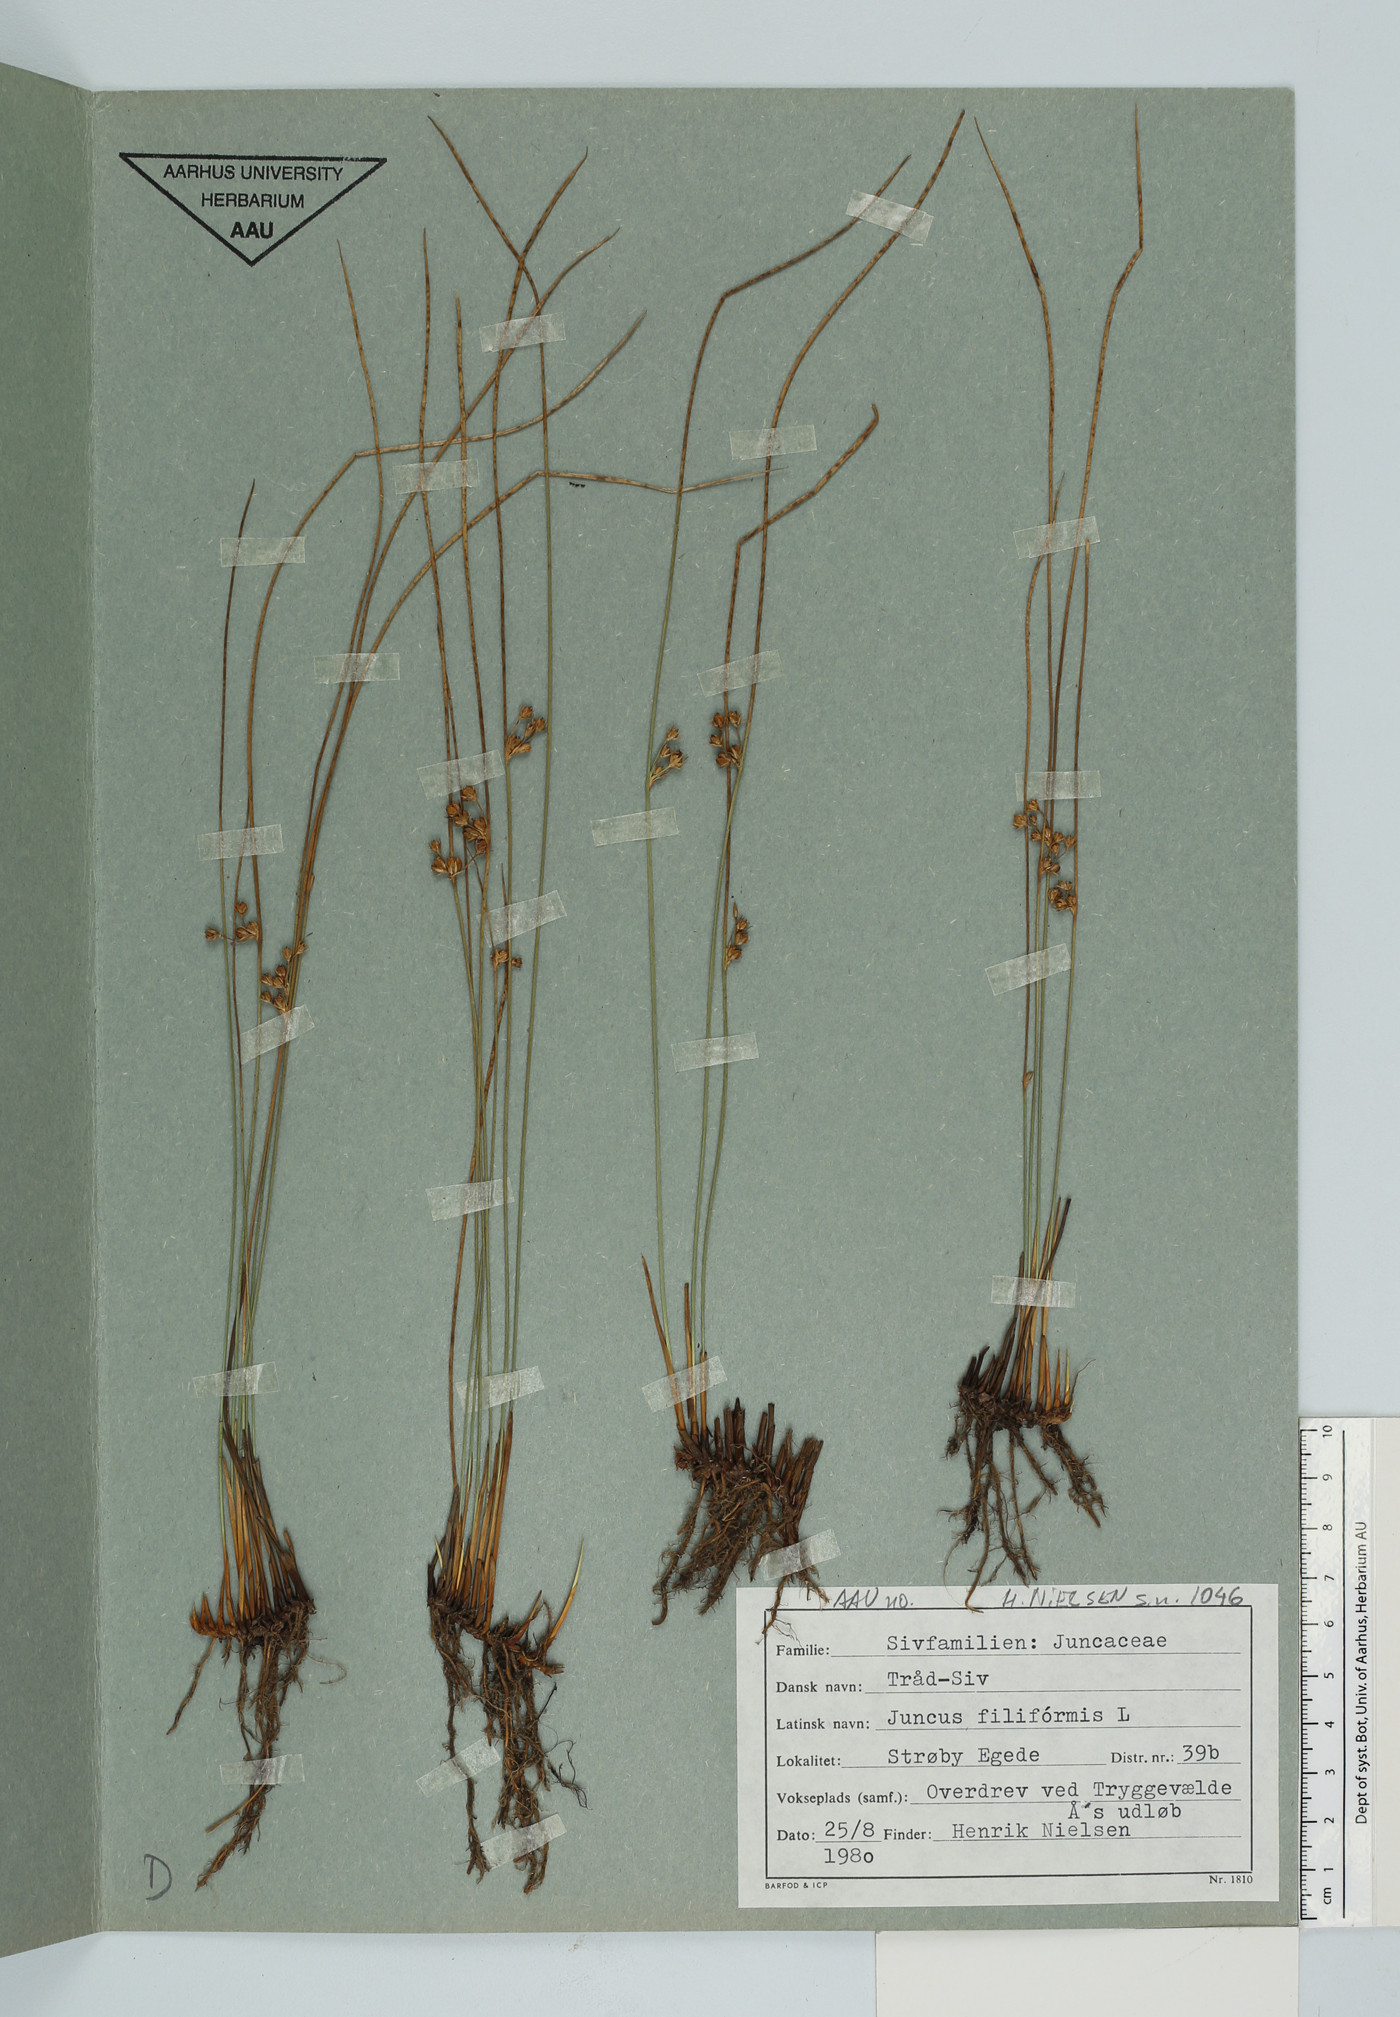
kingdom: Plantae
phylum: Tracheophyta
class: Liliopsida
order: Poales
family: Juncaceae
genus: Juncus
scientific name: Juncus filiformis
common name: Thread rush
